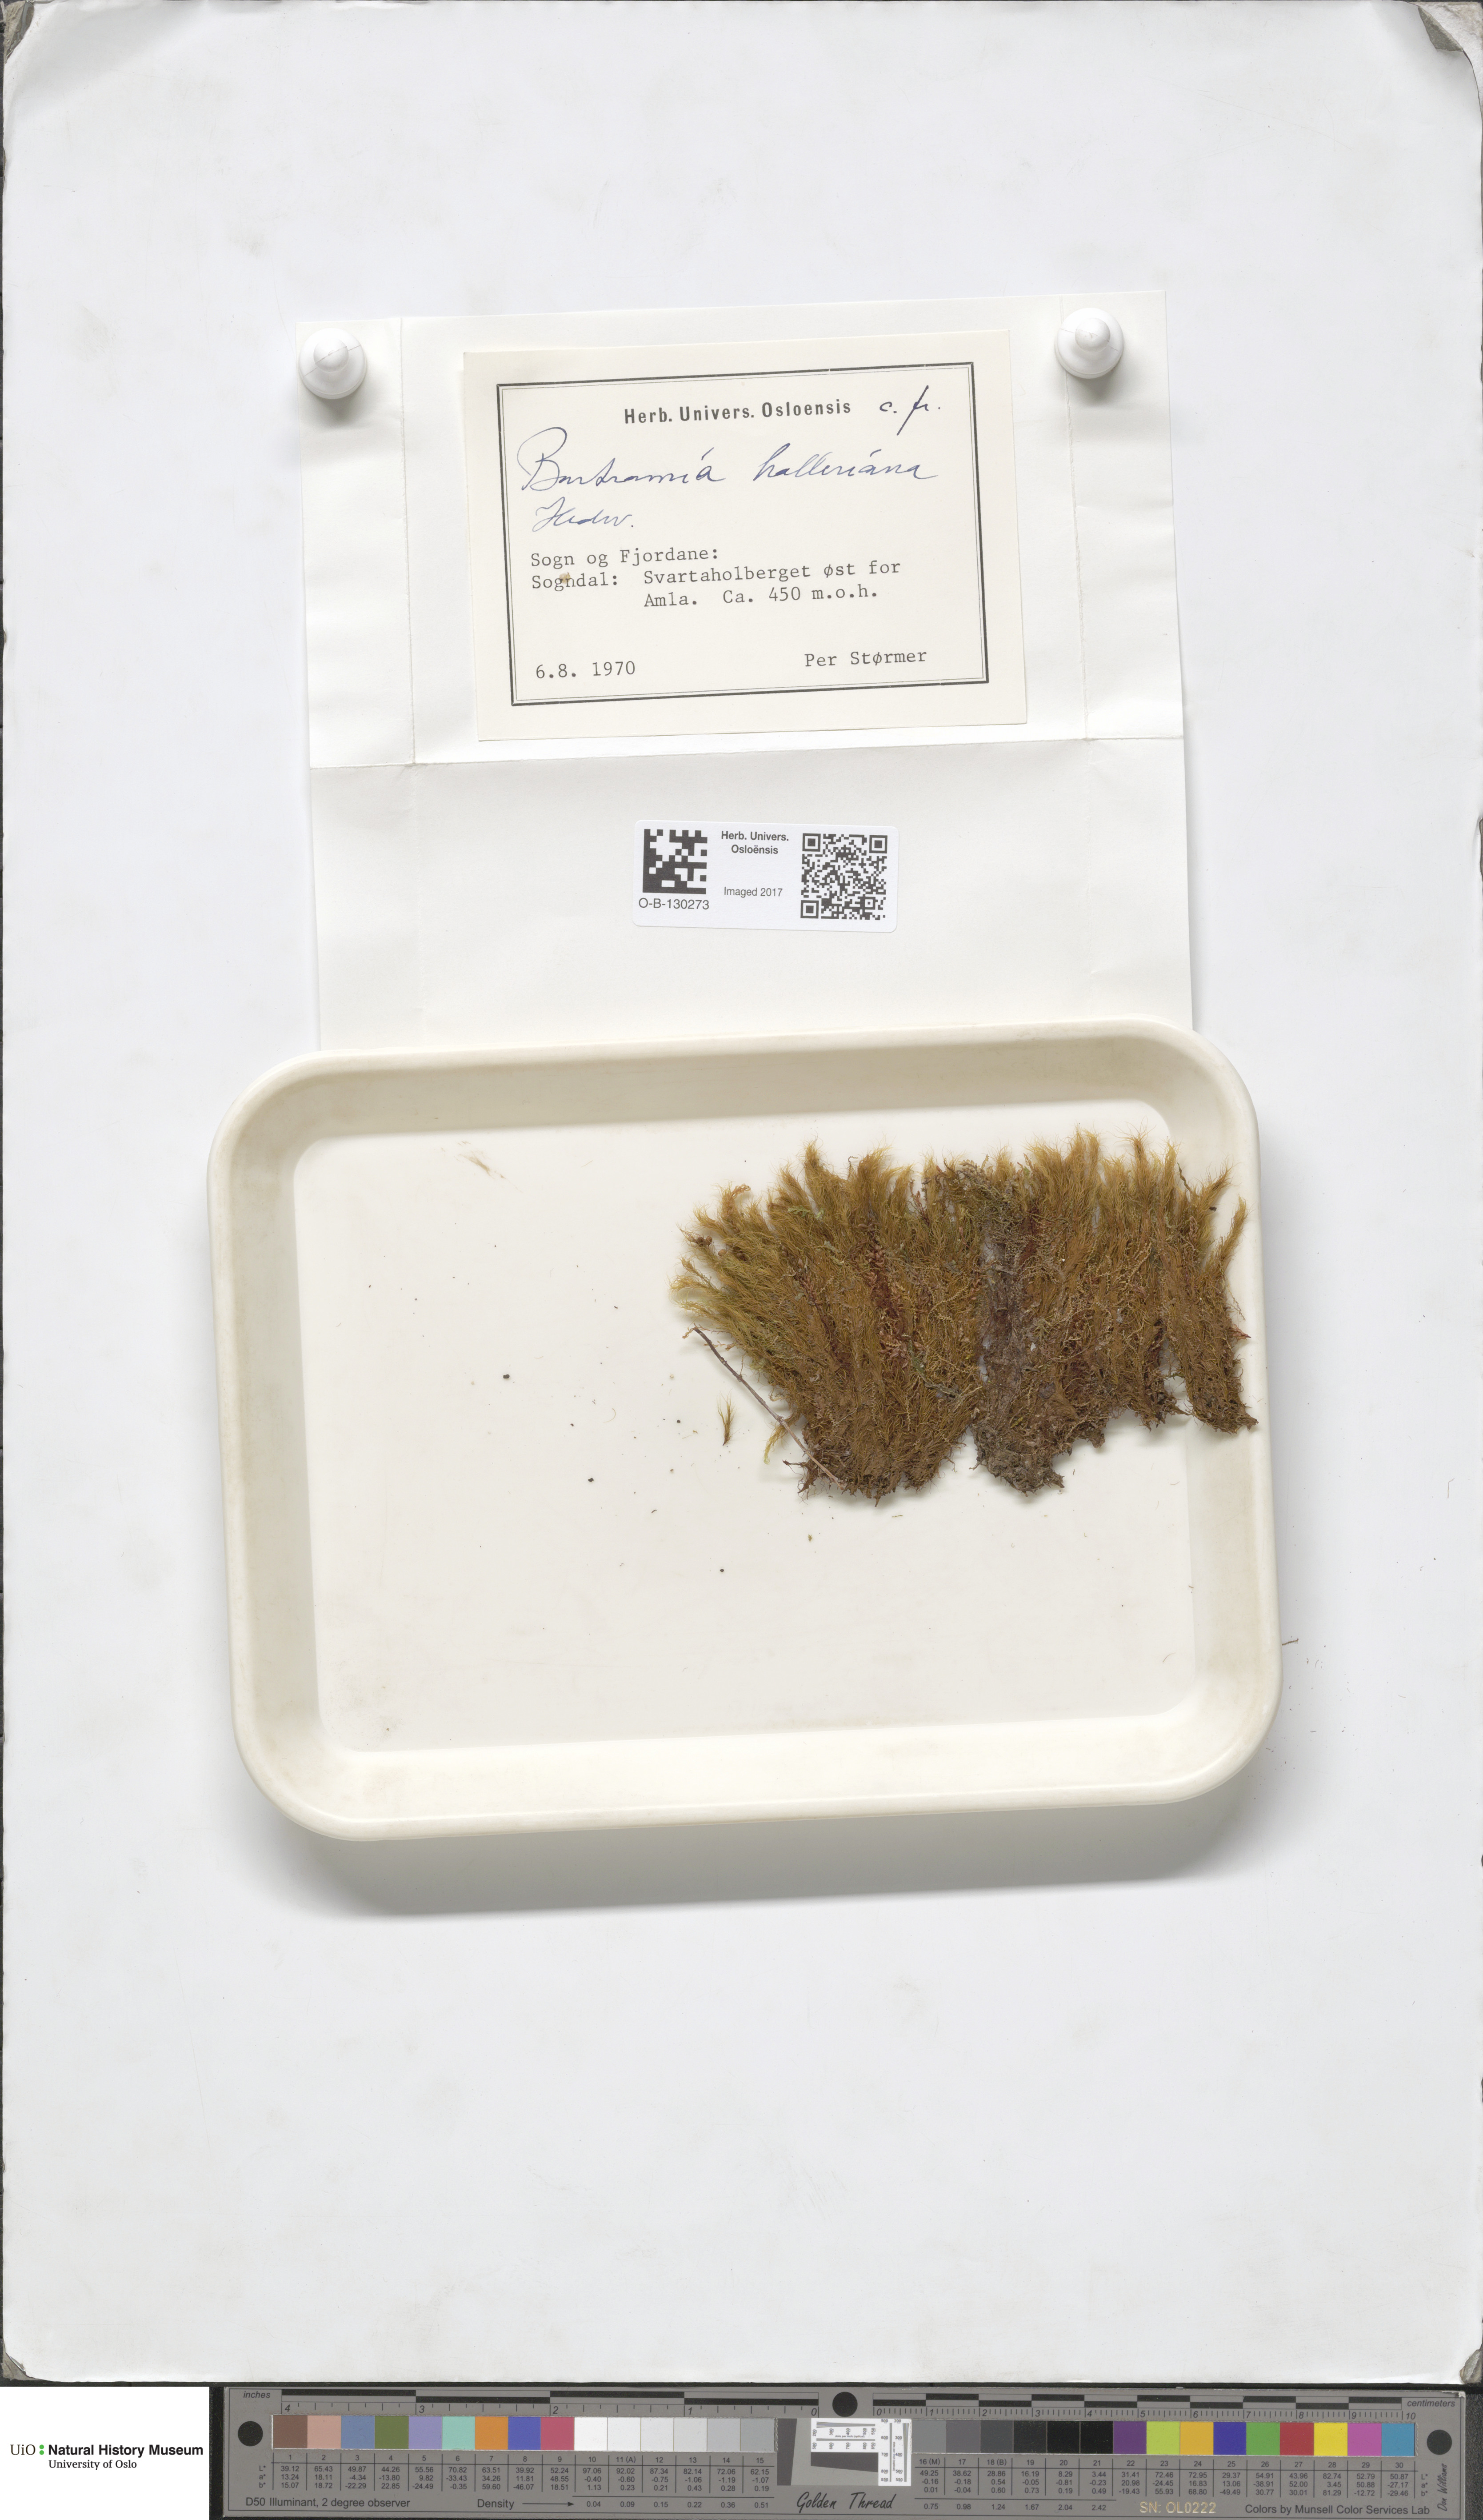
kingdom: Plantae
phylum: Bryophyta
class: Bryopsida
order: Bartramiales
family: Bartramiaceae
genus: Bartramia
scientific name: Bartramia halleriana
